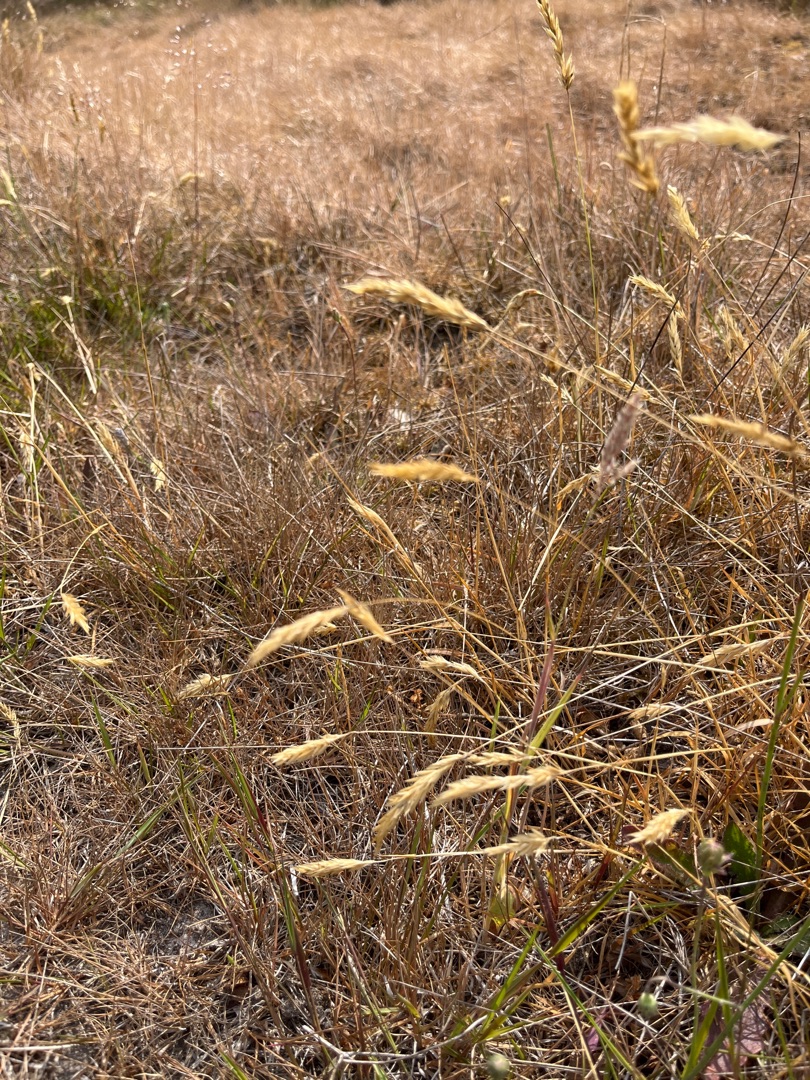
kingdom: Plantae
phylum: Tracheophyta
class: Liliopsida
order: Poales
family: Poaceae
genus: Anthoxanthum
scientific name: Anthoxanthum odoratum
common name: Vellugtende gulaks
